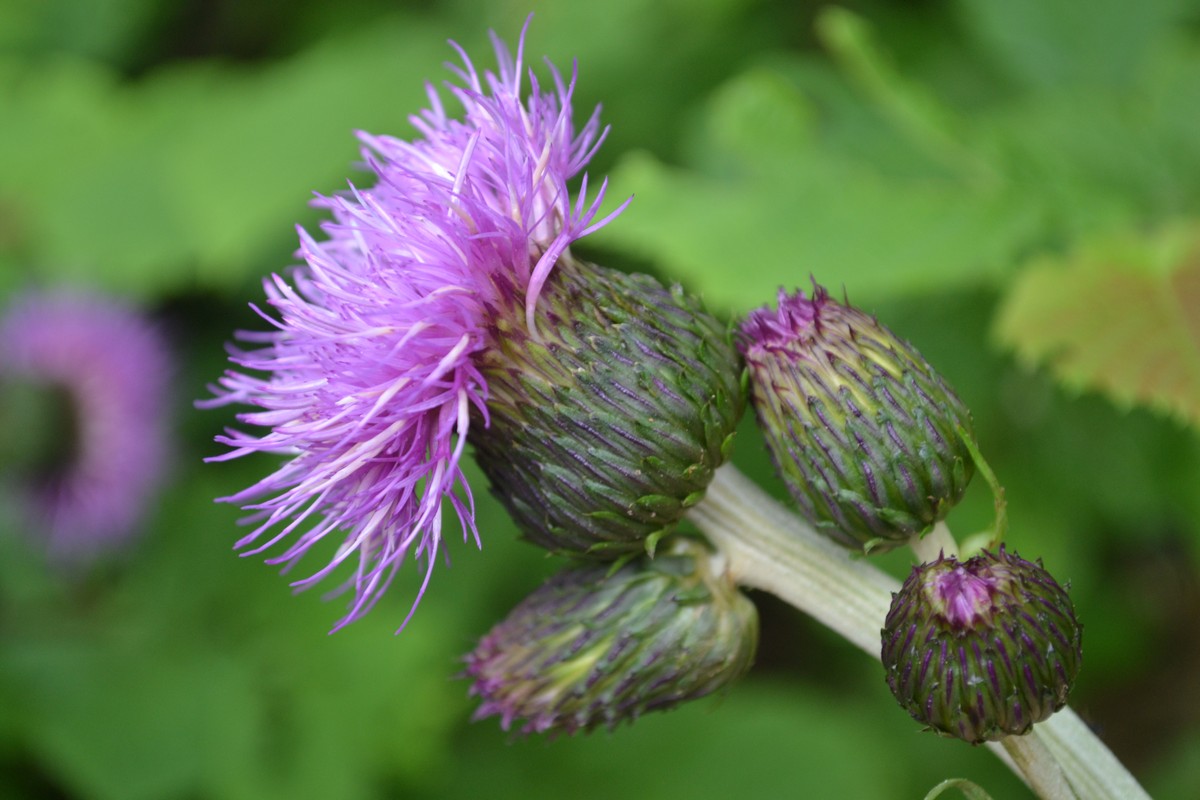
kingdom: Plantae
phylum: Tracheophyta
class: Magnoliopsida
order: Asterales
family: Asteraceae
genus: Cirsium
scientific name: Cirsium heterophyllum
